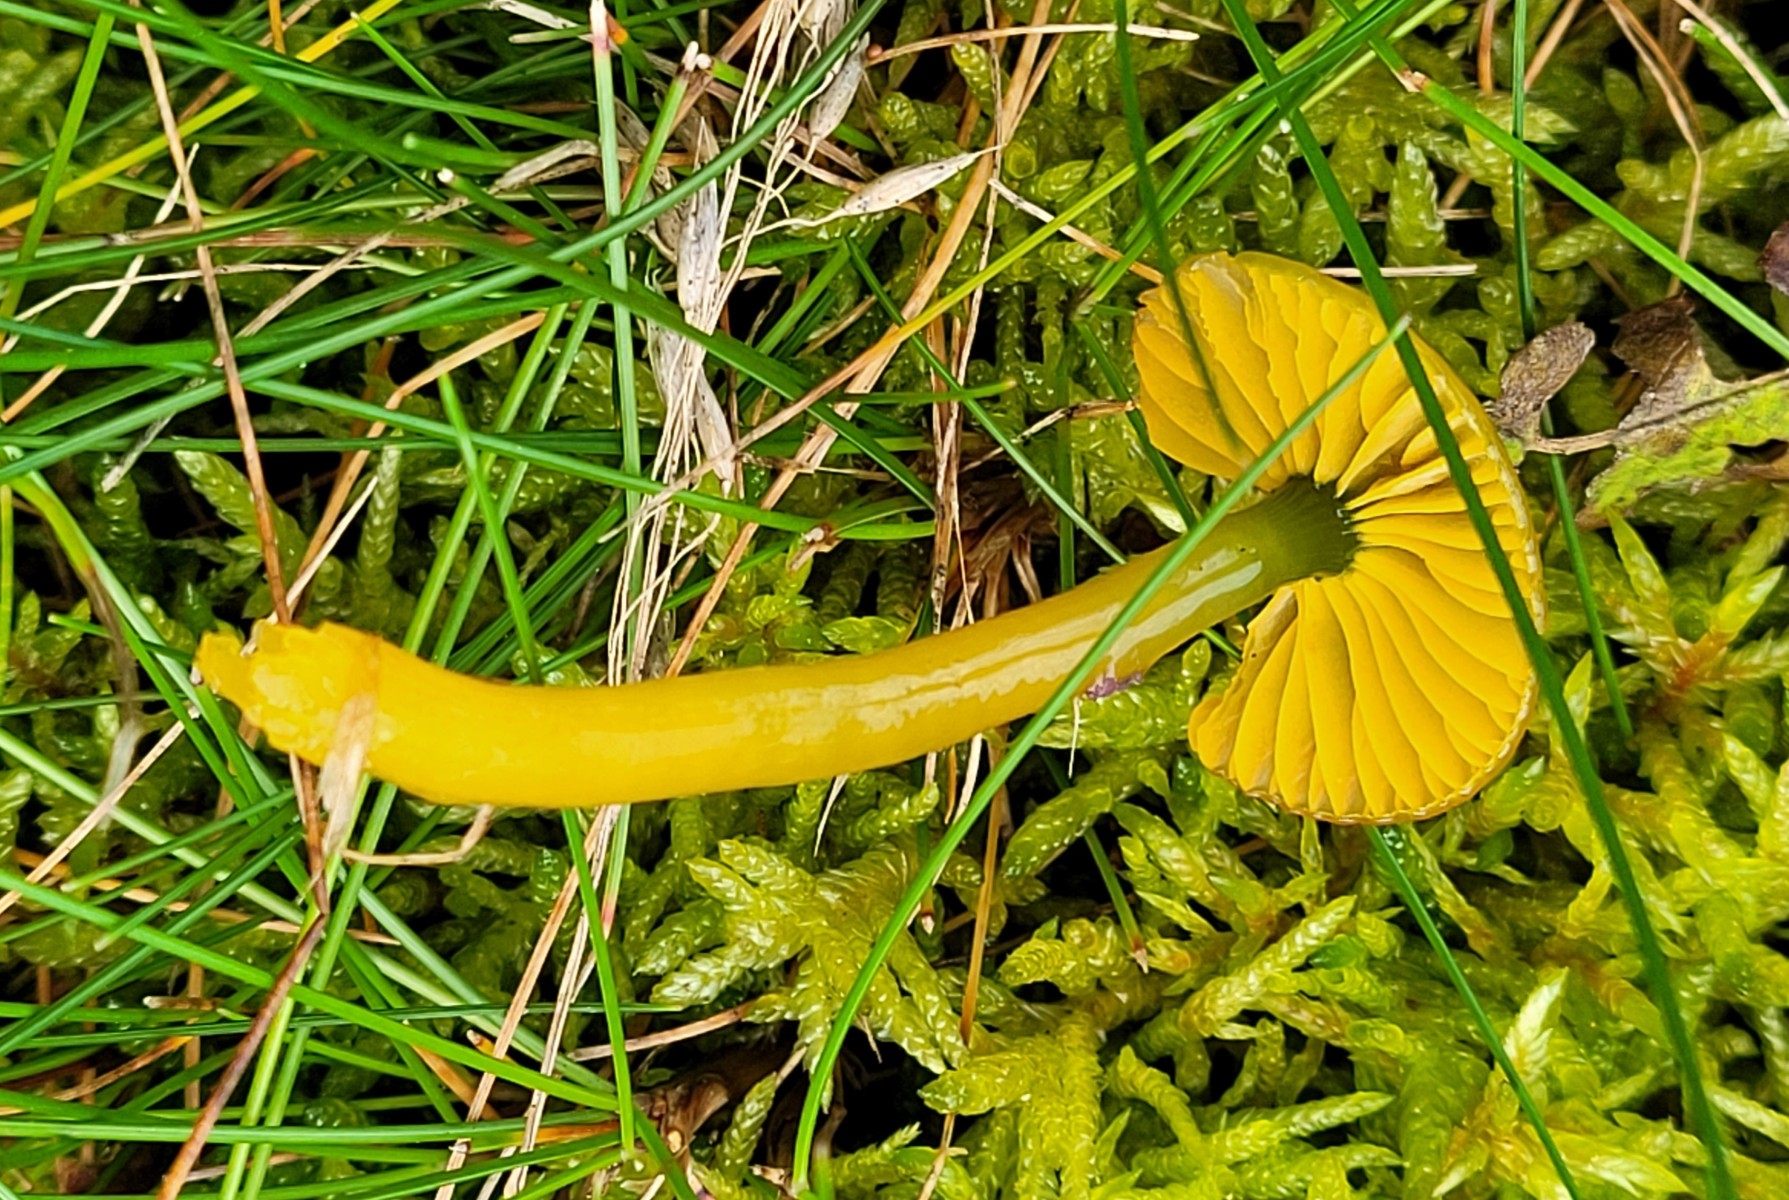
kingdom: Fungi
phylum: Basidiomycota
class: Agaricomycetes
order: Agaricales
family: Hygrophoraceae
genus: Gliophorus
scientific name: Gliophorus psittacinus
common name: papegøje-vokshat
